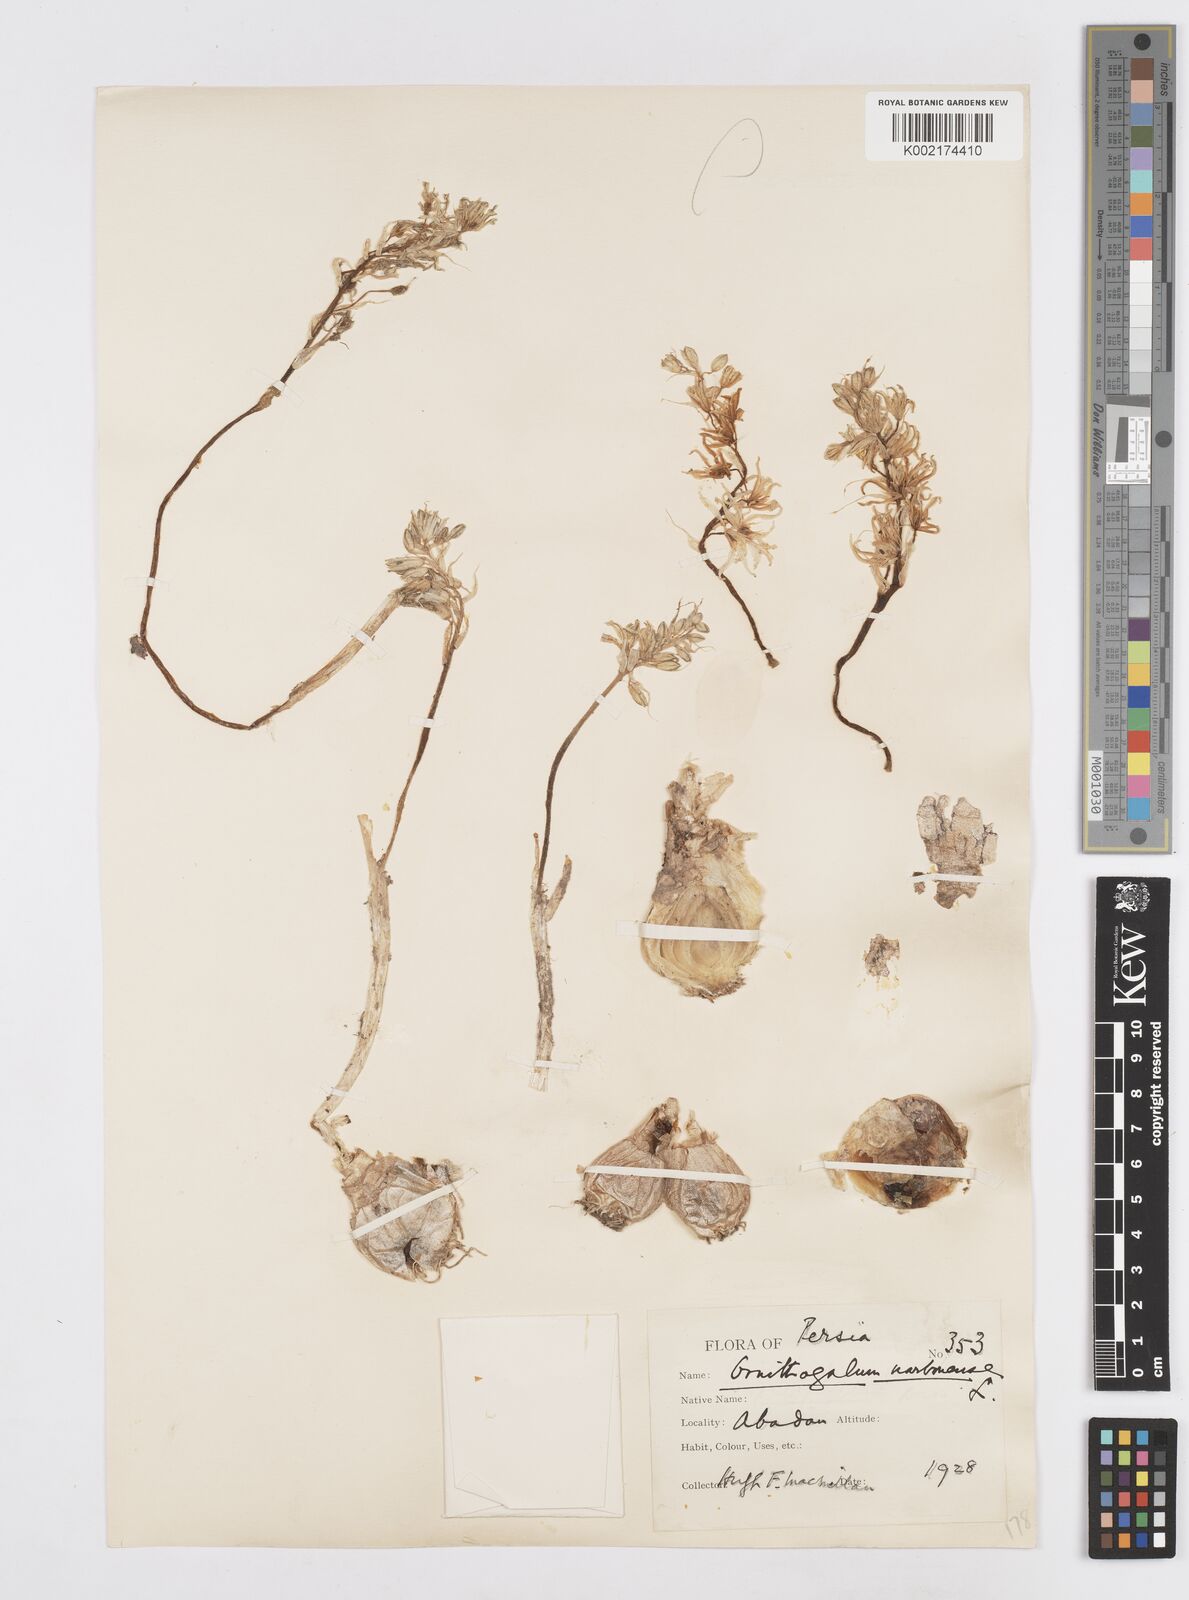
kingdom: Plantae
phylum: Tracheophyta
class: Liliopsida
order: Asparagales
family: Asparagaceae
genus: Ornithogalum
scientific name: Ornithogalum narbonense
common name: Bath-asparagus
